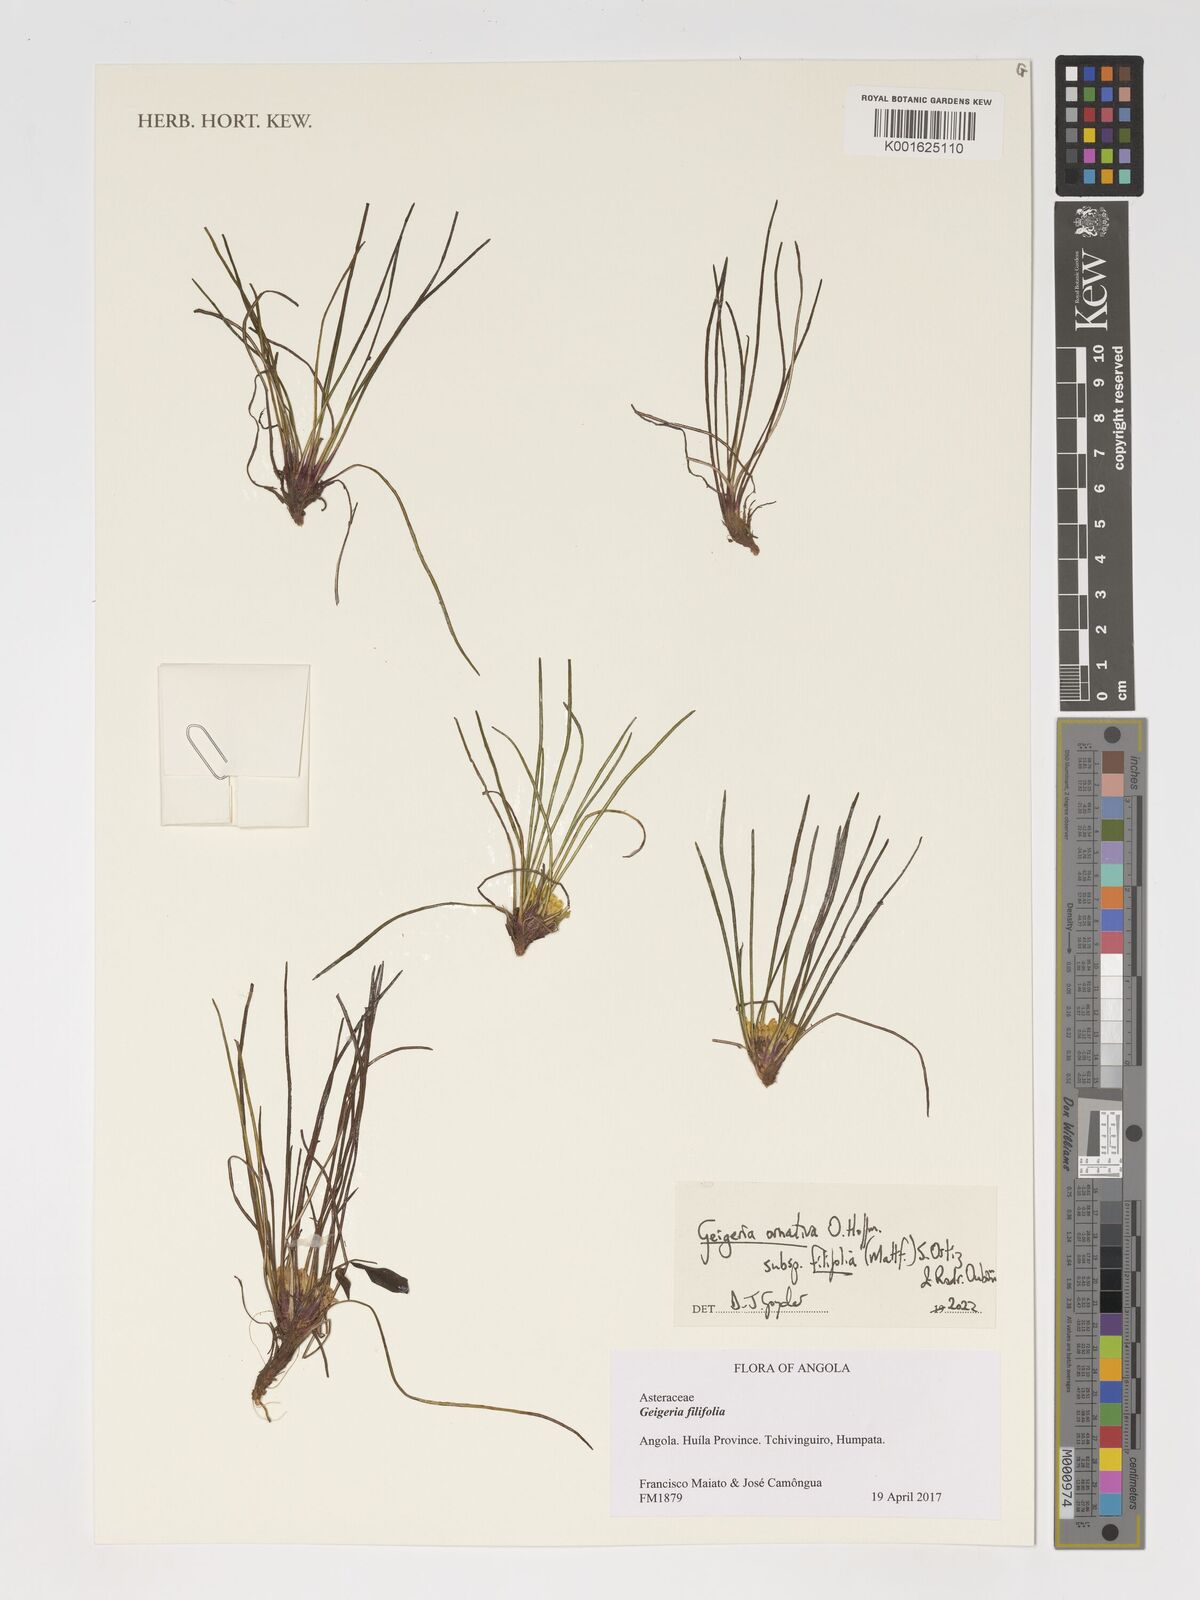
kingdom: Plantae
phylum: Tracheophyta
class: Magnoliopsida
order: Asterales
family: Asteraceae
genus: Geigeria
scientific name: Geigeria ornativa
